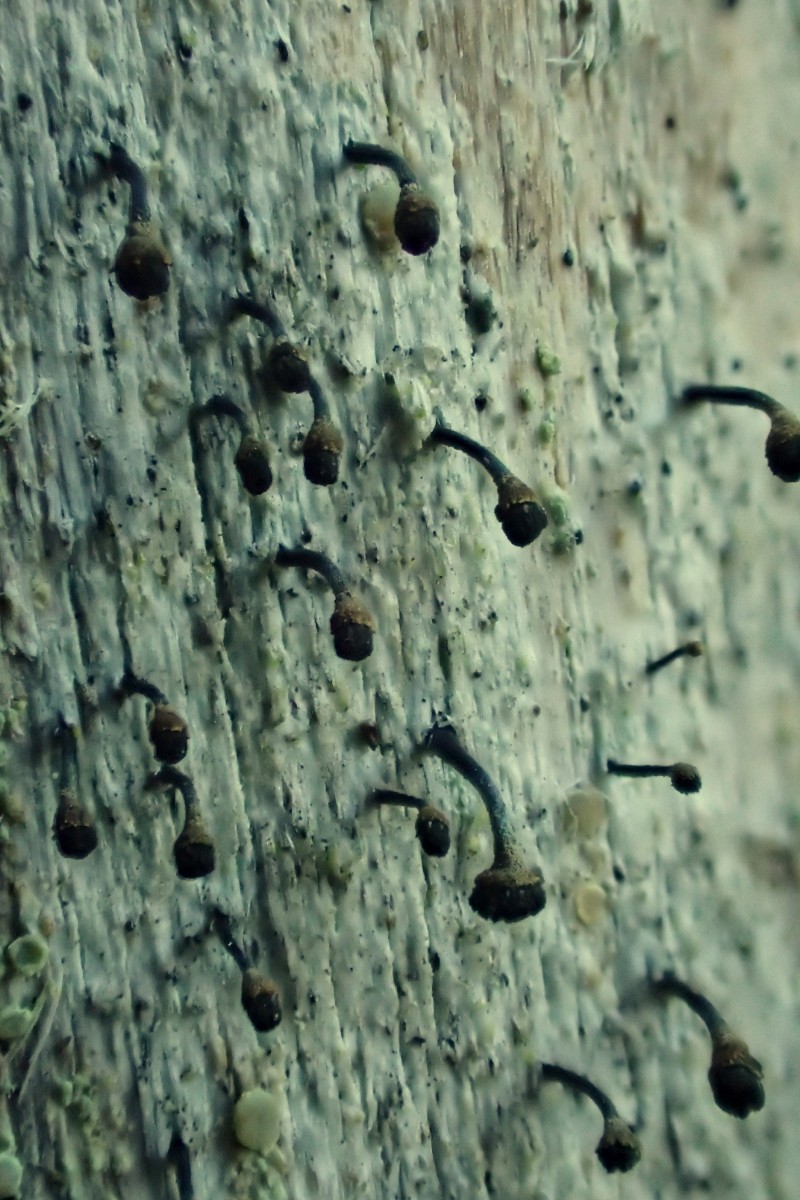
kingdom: Fungi
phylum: Ascomycota
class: Lecanoromycetes
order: Caliciales
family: Caliciaceae
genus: Calicium
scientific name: Calicium salicinum
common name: persoons nålelav
